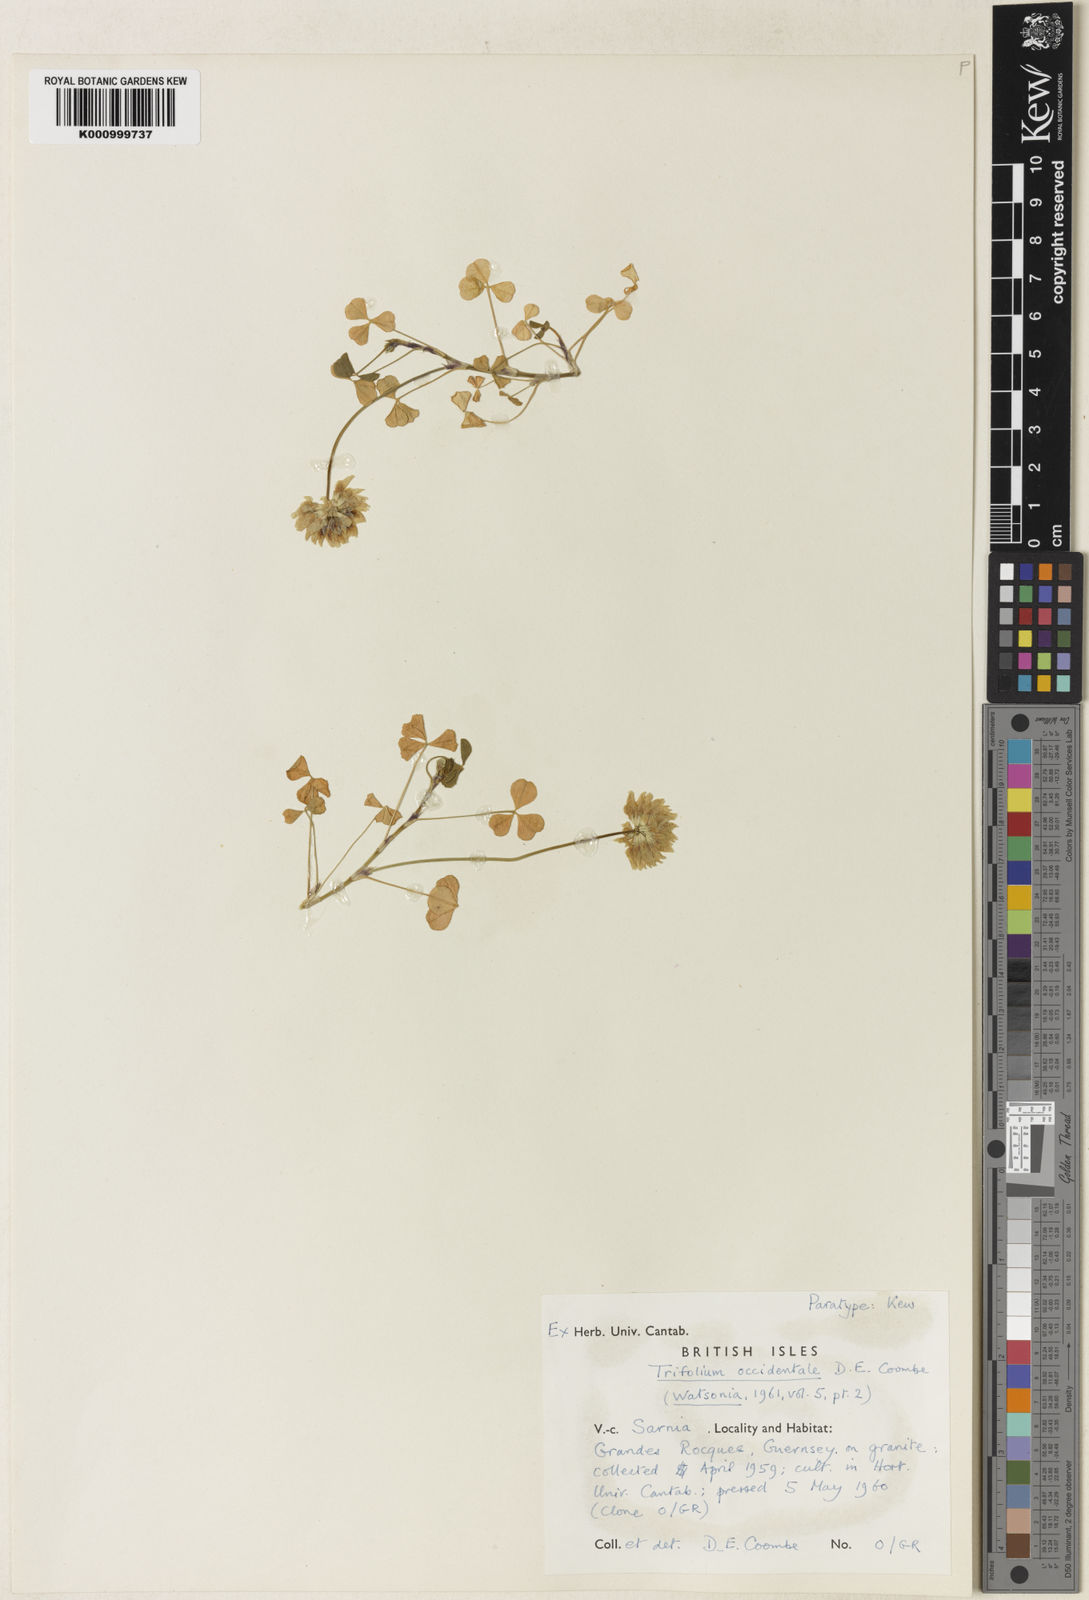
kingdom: Plantae
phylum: Tracheophyta
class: Magnoliopsida
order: Fabales
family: Fabaceae
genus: Trifolium
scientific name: Trifolium occidentale
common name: Western clover
